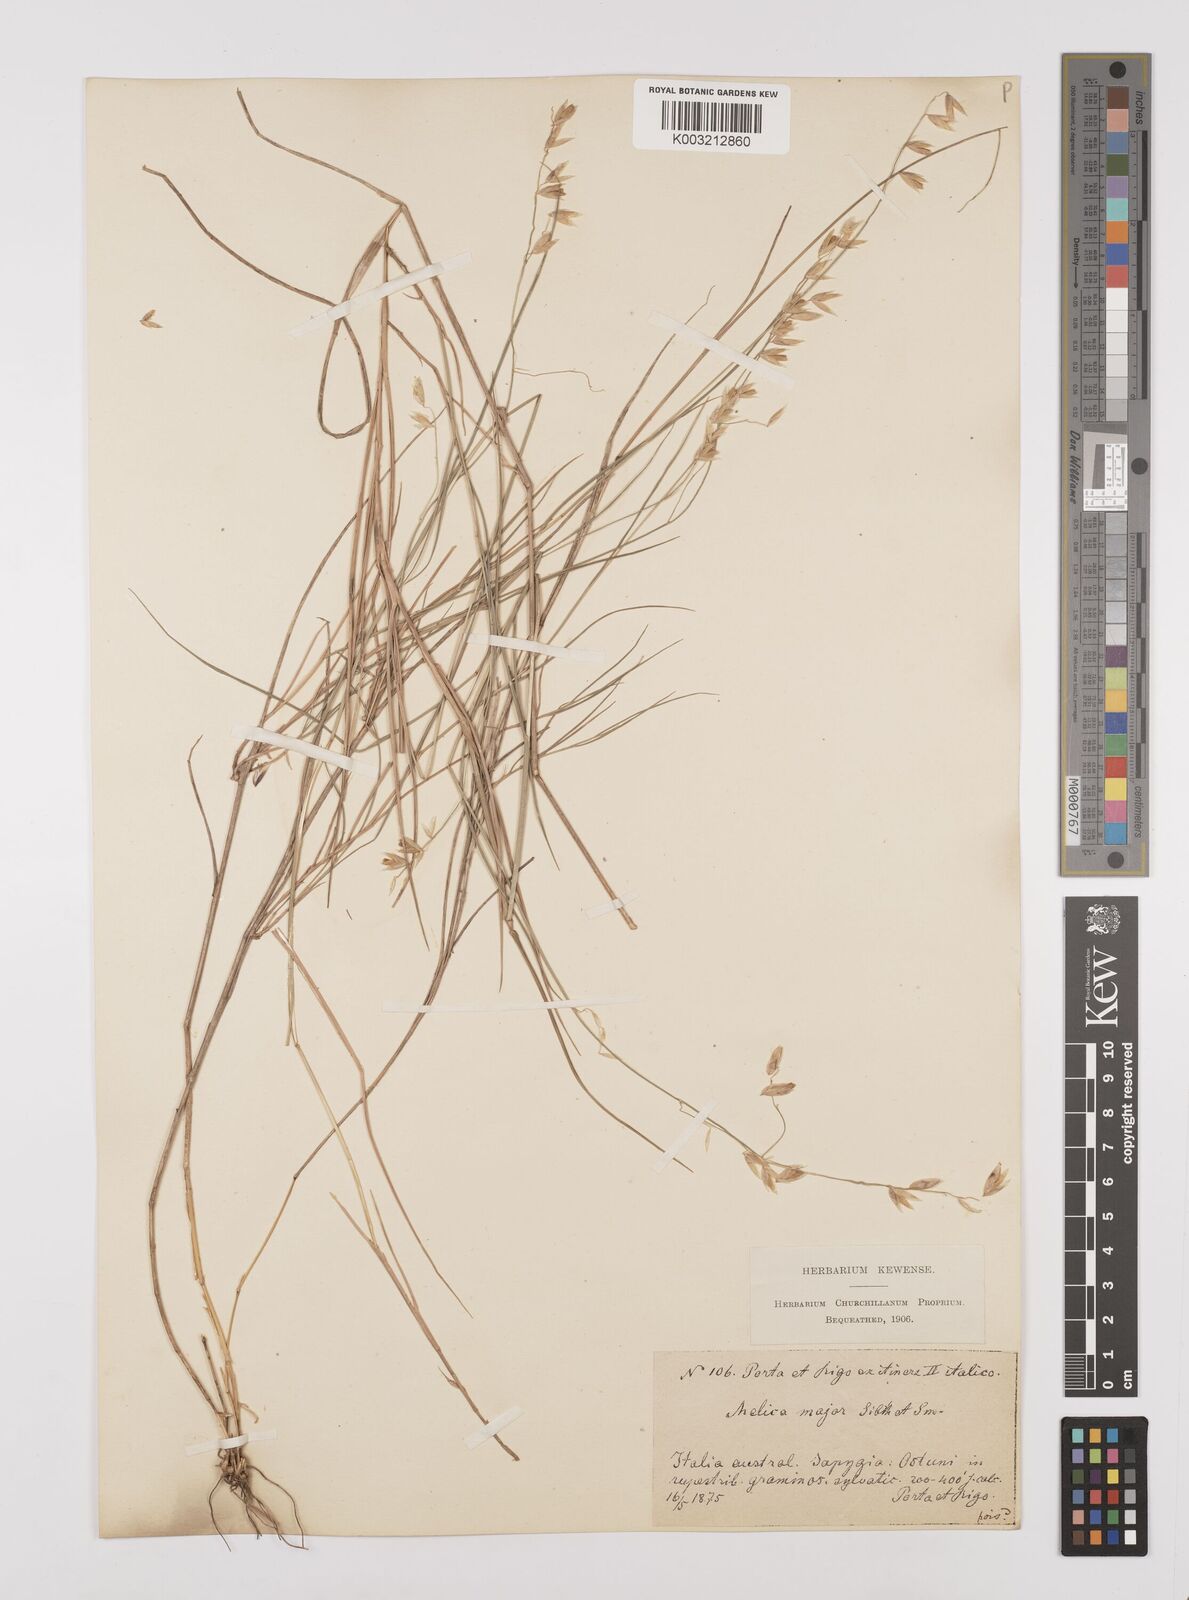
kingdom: Plantae
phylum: Tracheophyta
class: Liliopsida
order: Poales
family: Poaceae
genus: Melica
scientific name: Melica minuta
